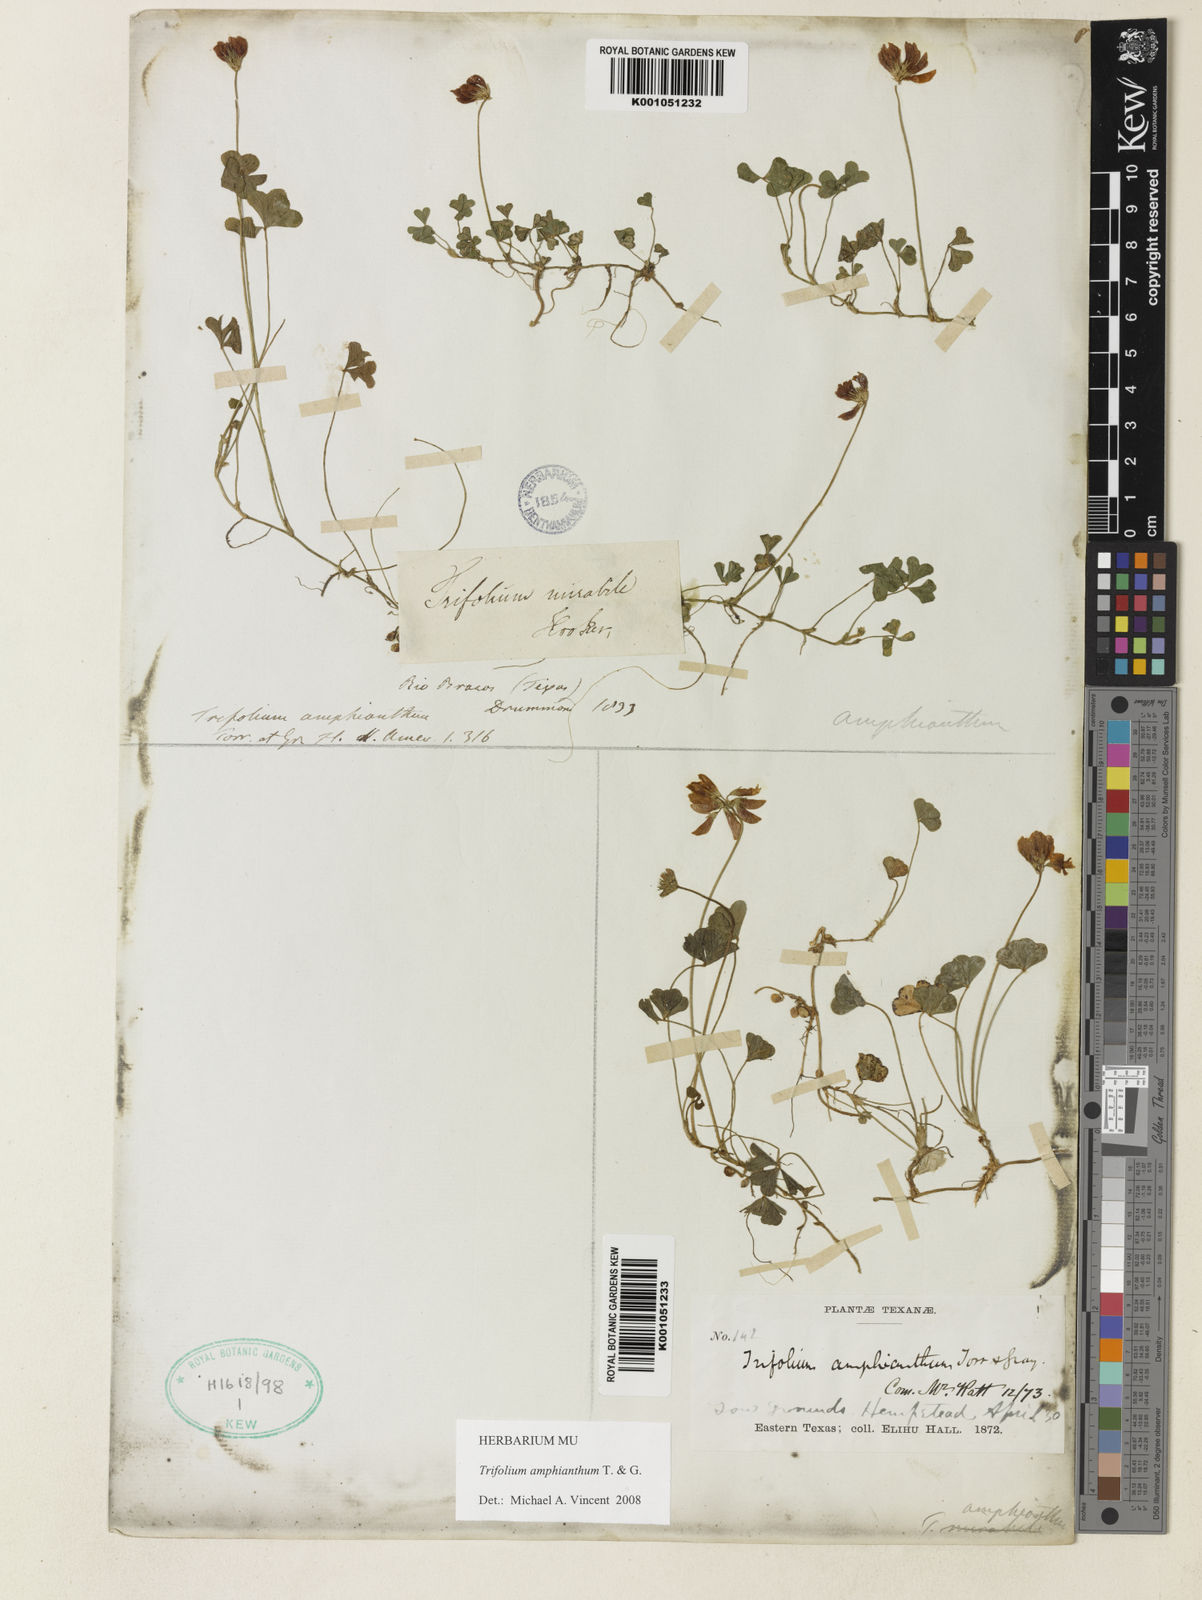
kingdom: Plantae
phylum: Tracheophyta
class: Magnoliopsida
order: Fabales
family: Fabaceae
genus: Trifolium
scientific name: Trifolium amphianthum
